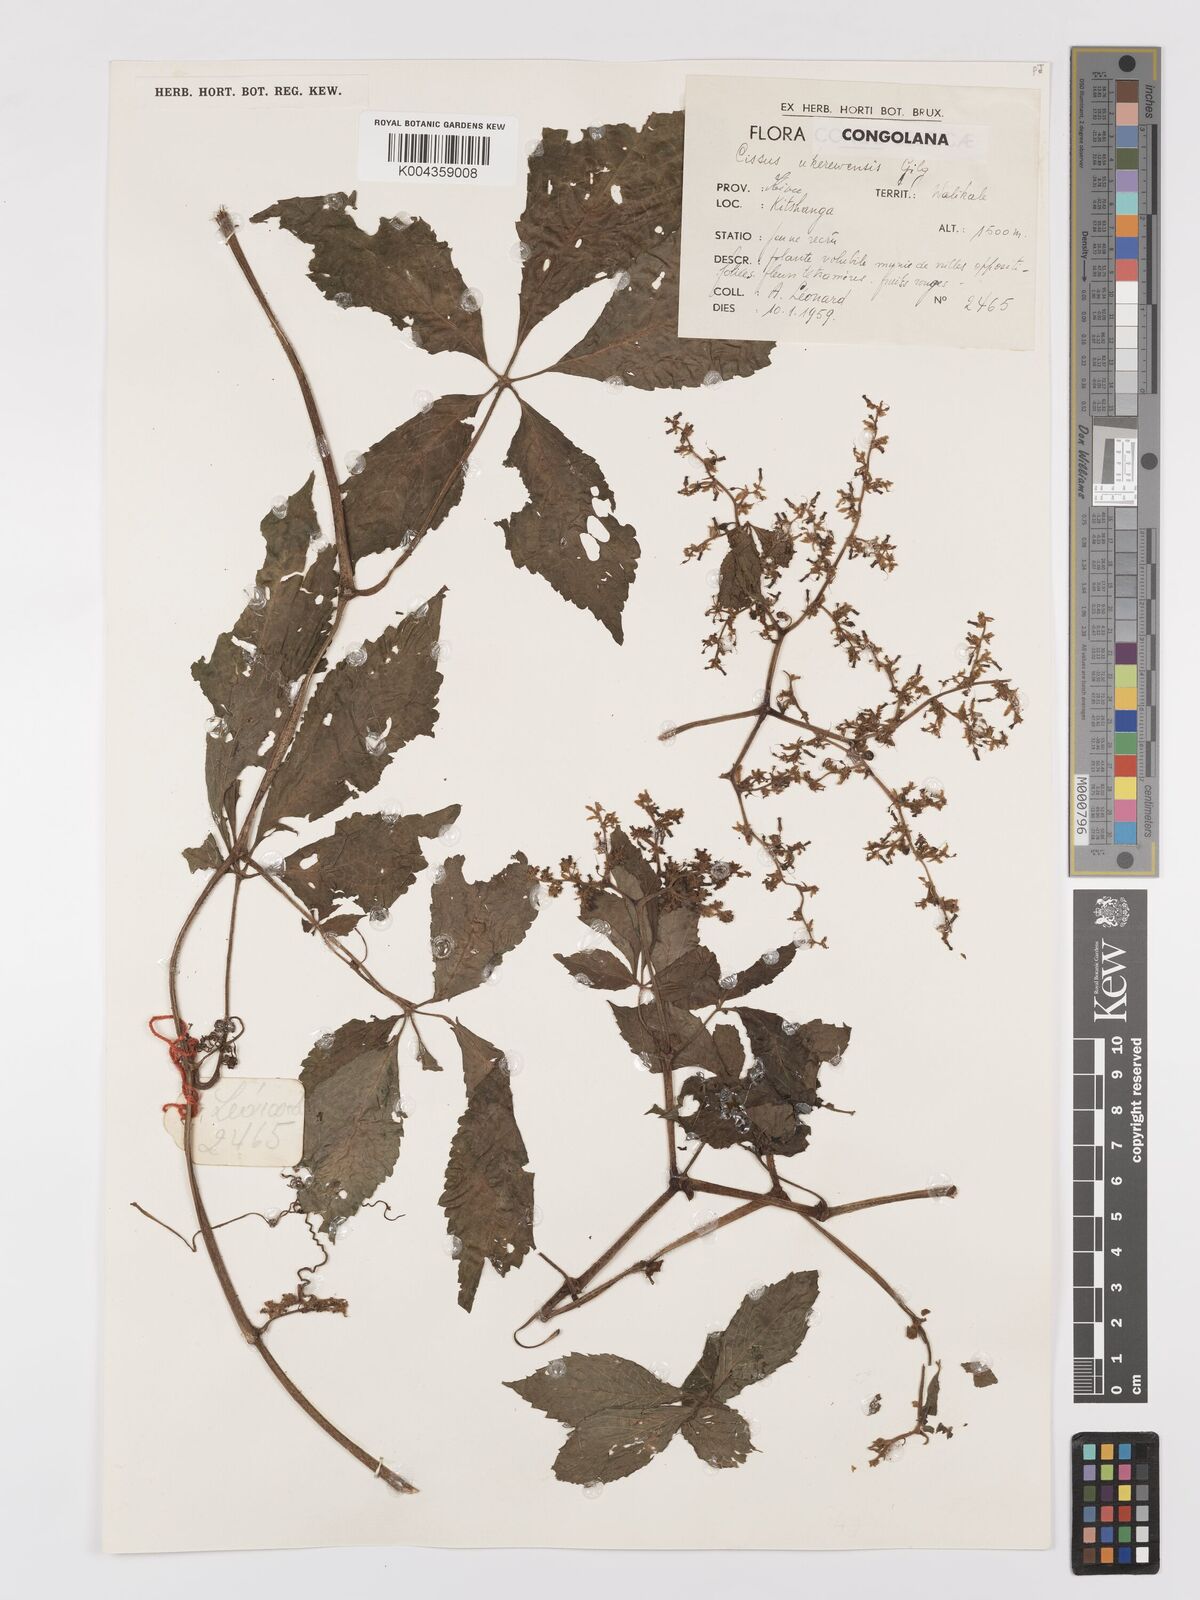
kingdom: Plantae
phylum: Tracheophyta
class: Magnoliopsida
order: Vitales
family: Vitaceae
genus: Cyphostemma
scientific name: Cyphostemma ukerewense
